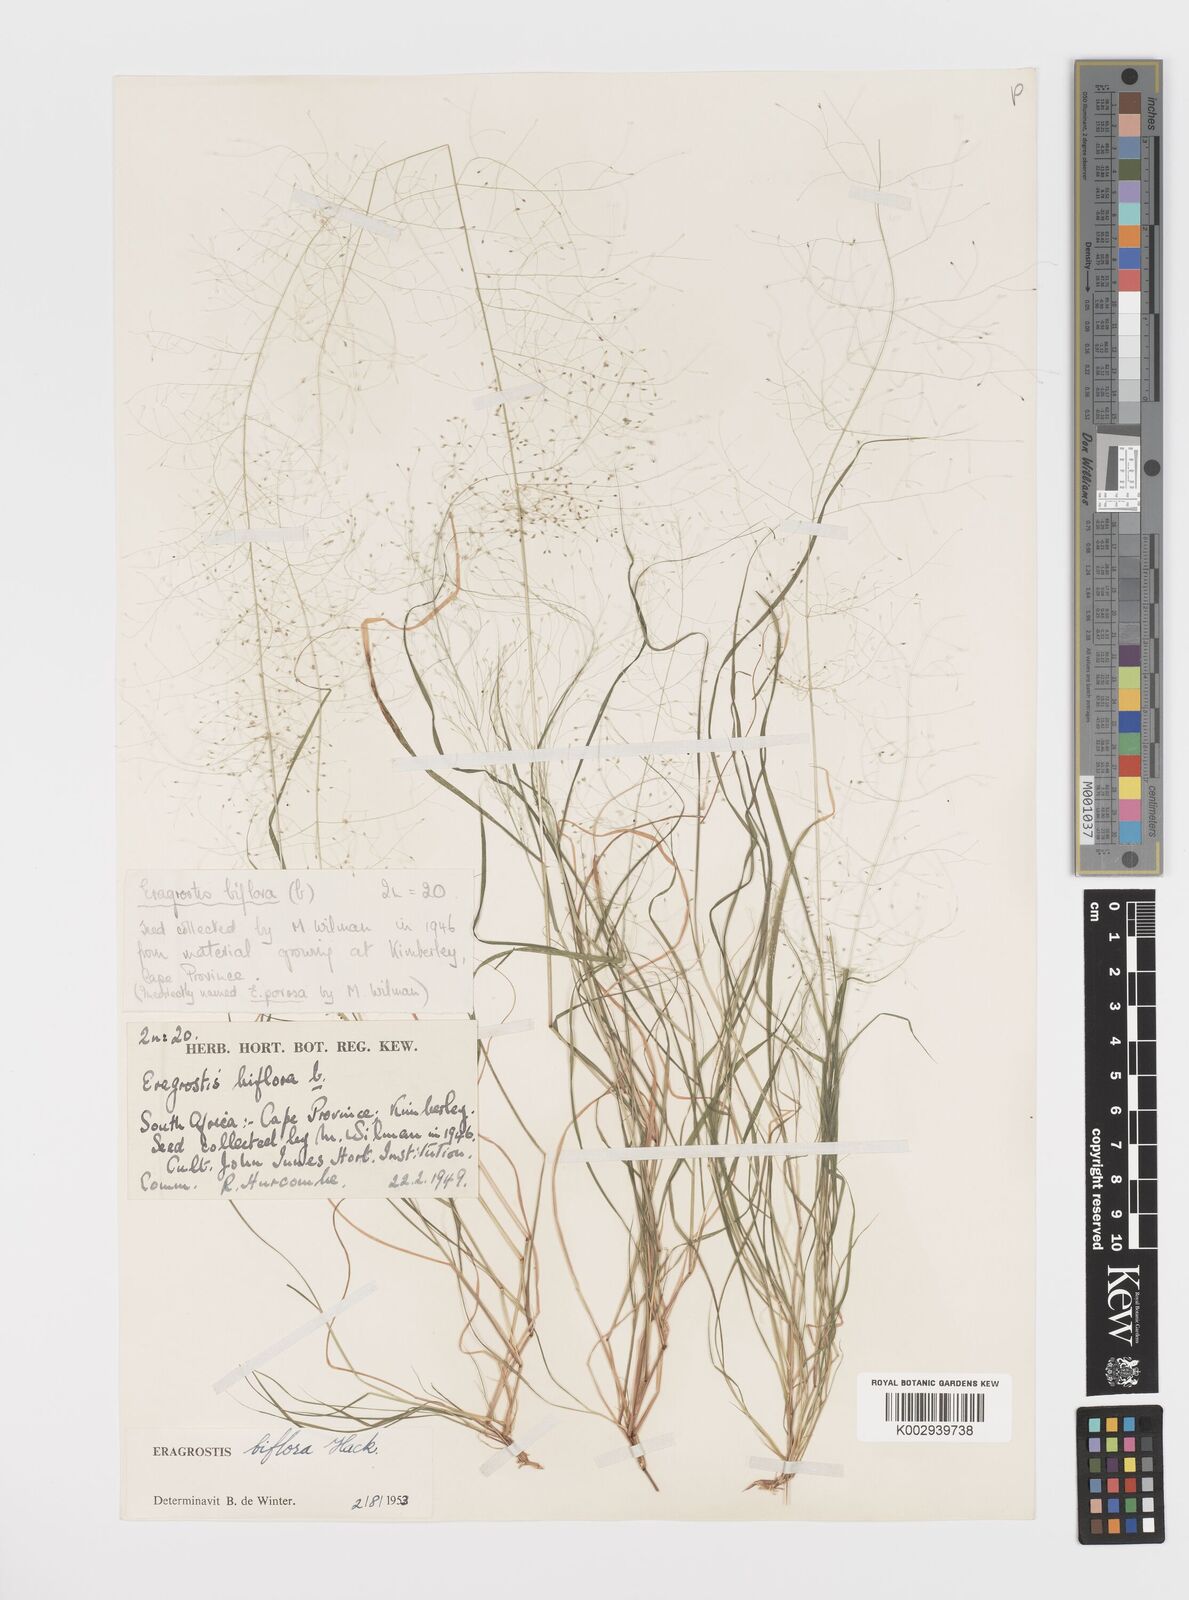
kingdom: Plantae
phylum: Tracheophyta
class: Liliopsida
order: Poales
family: Poaceae
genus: Eragrostis
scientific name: Eragrostis biflora
